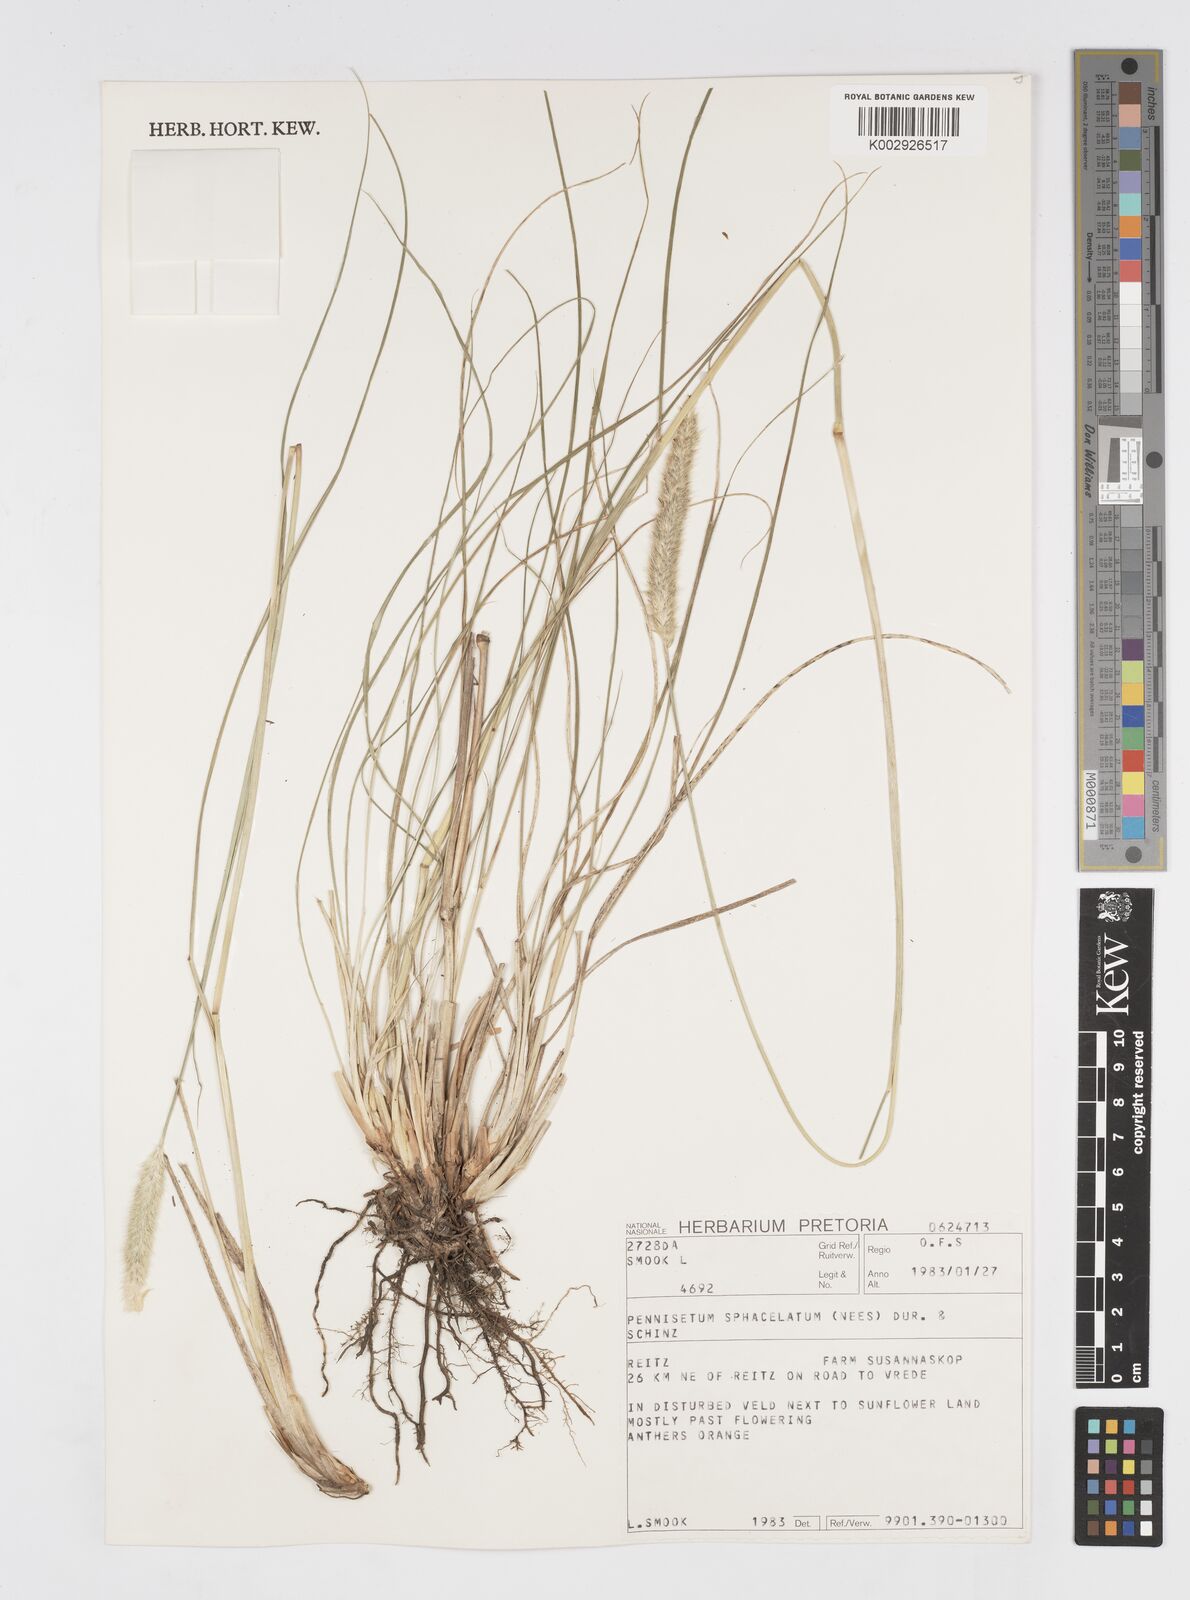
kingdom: Plantae
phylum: Tracheophyta
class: Liliopsida
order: Poales
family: Poaceae
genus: Cenchrus
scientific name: Cenchrus sphacelatus
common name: Bulgras
